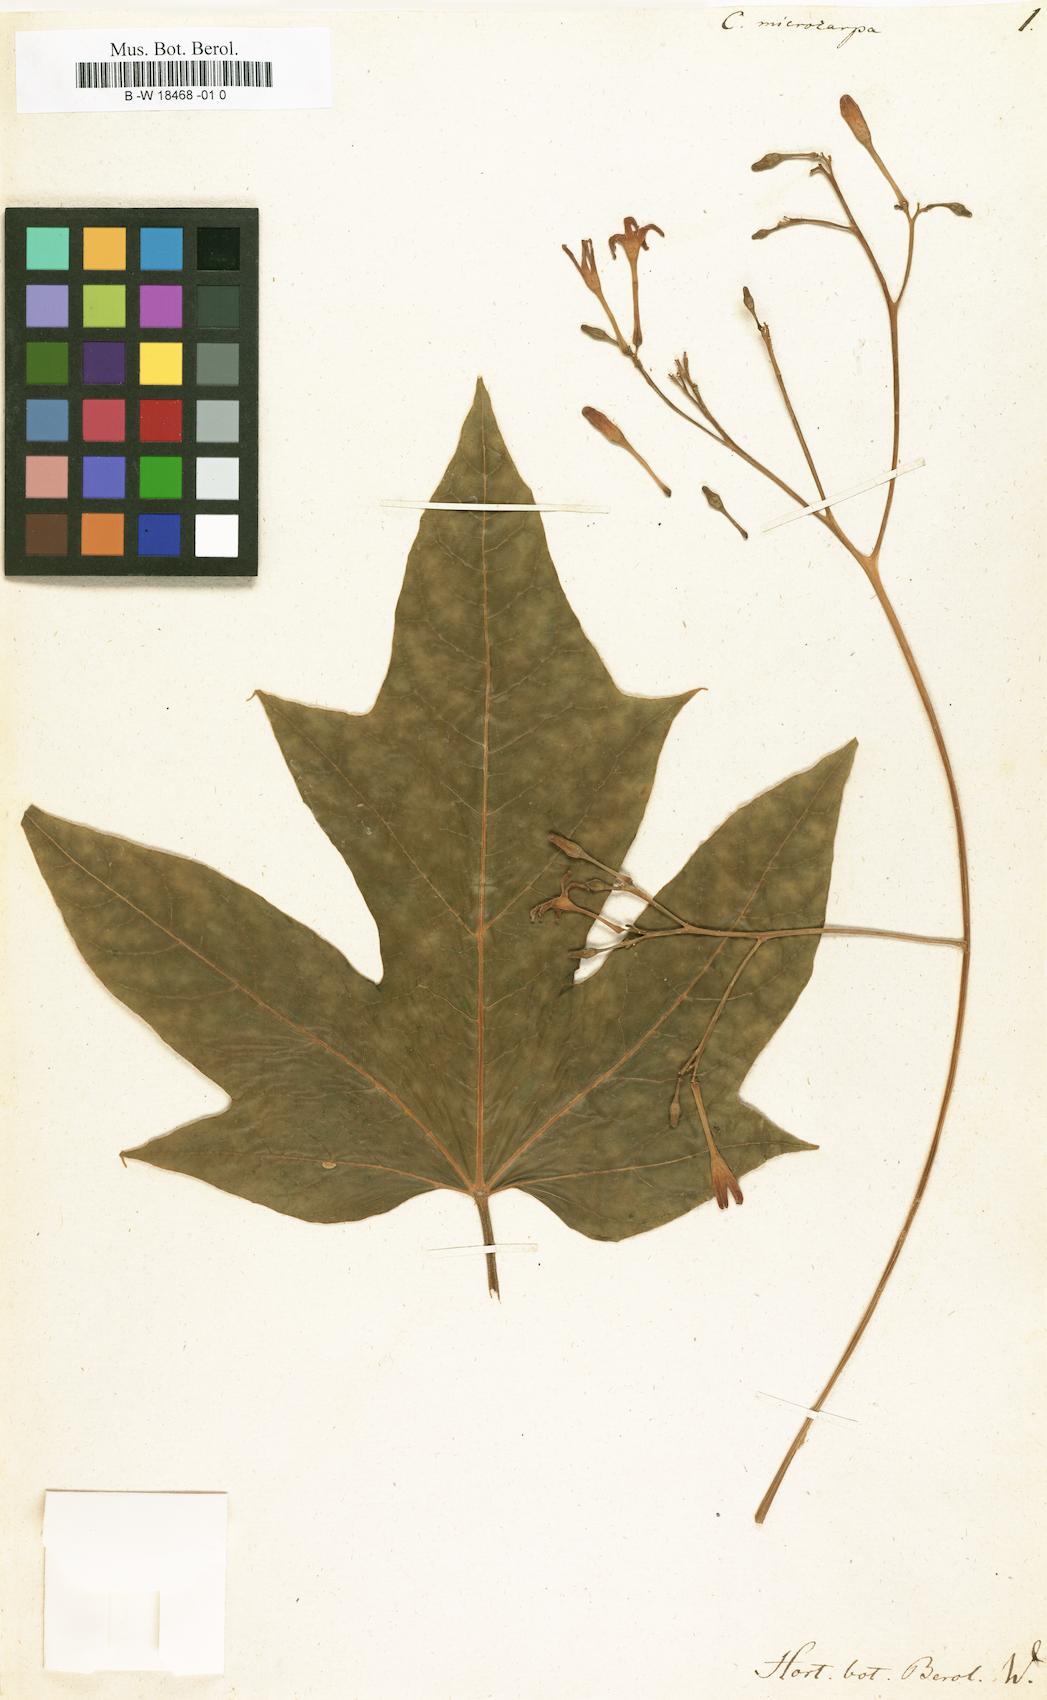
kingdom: Plantae
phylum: Tracheophyta
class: Magnoliopsida
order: Brassicales
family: Caricaceae
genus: Vasconcellea
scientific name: Vasconcellea microcarpa
